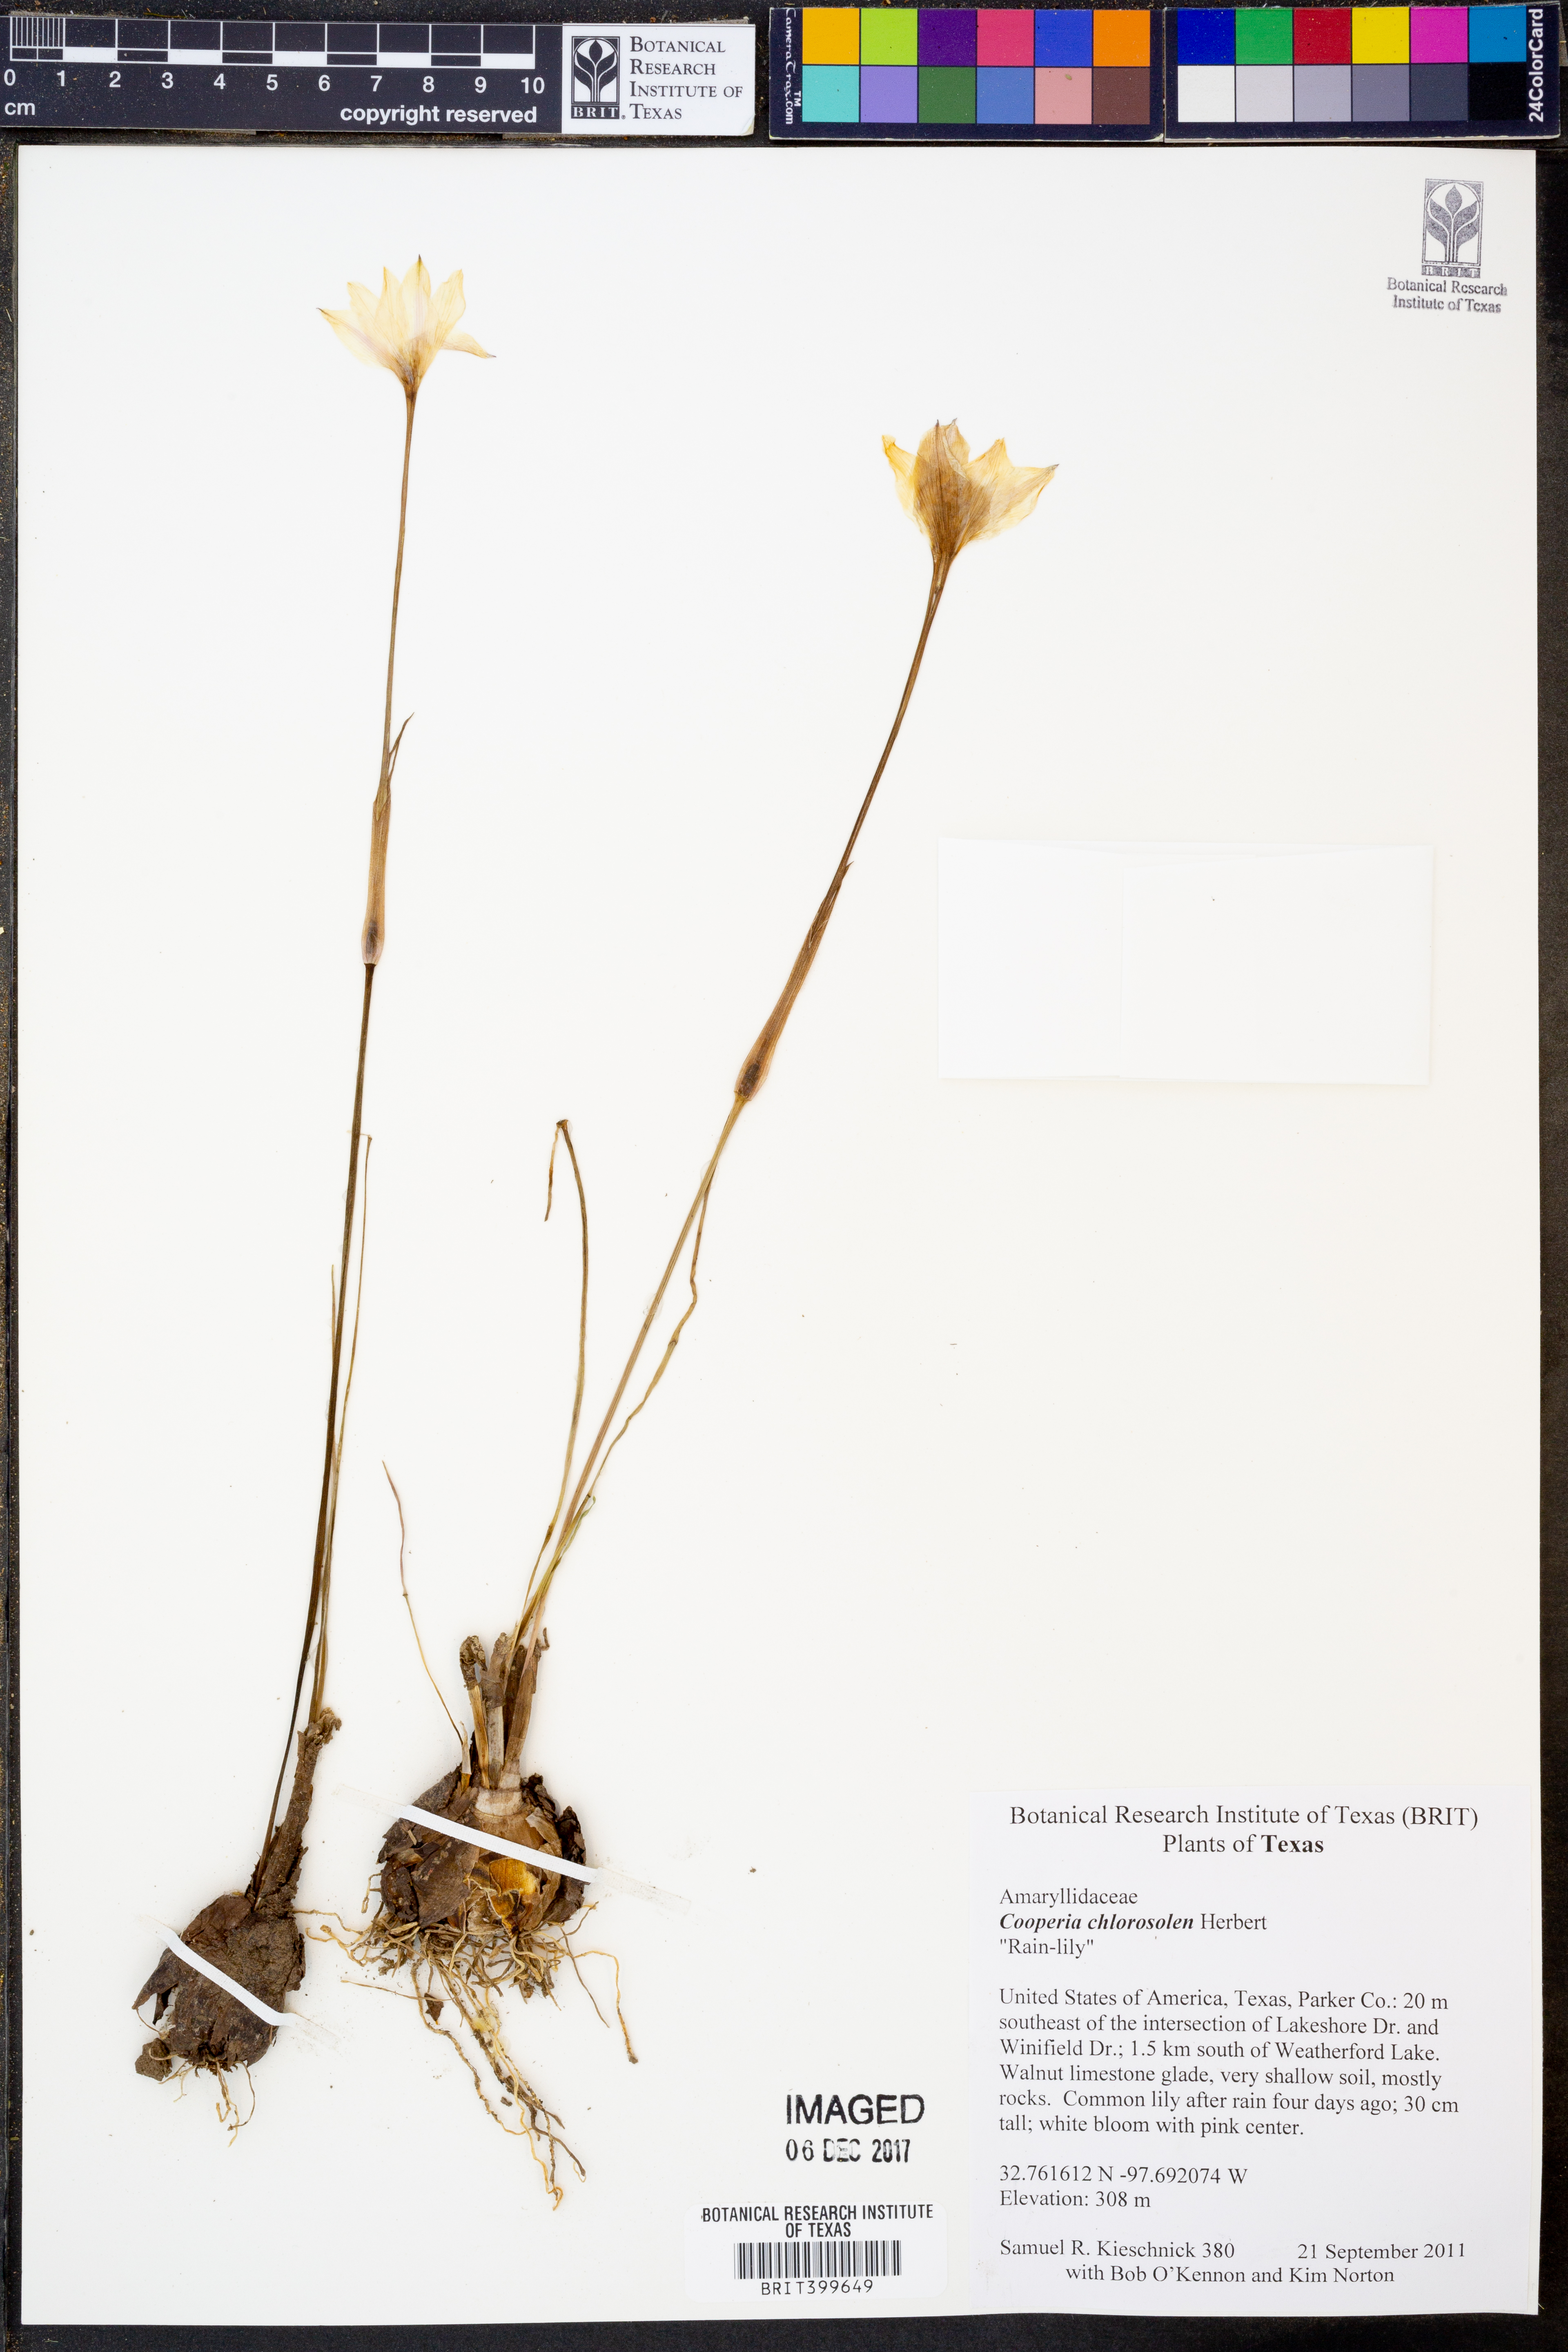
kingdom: Plantae
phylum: Tracheophyta
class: Liliopsida
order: Asparagales
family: Amaryllidaceae
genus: Zephyranthes
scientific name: Zephyranthes chlorosolen
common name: Evening rain-lily
